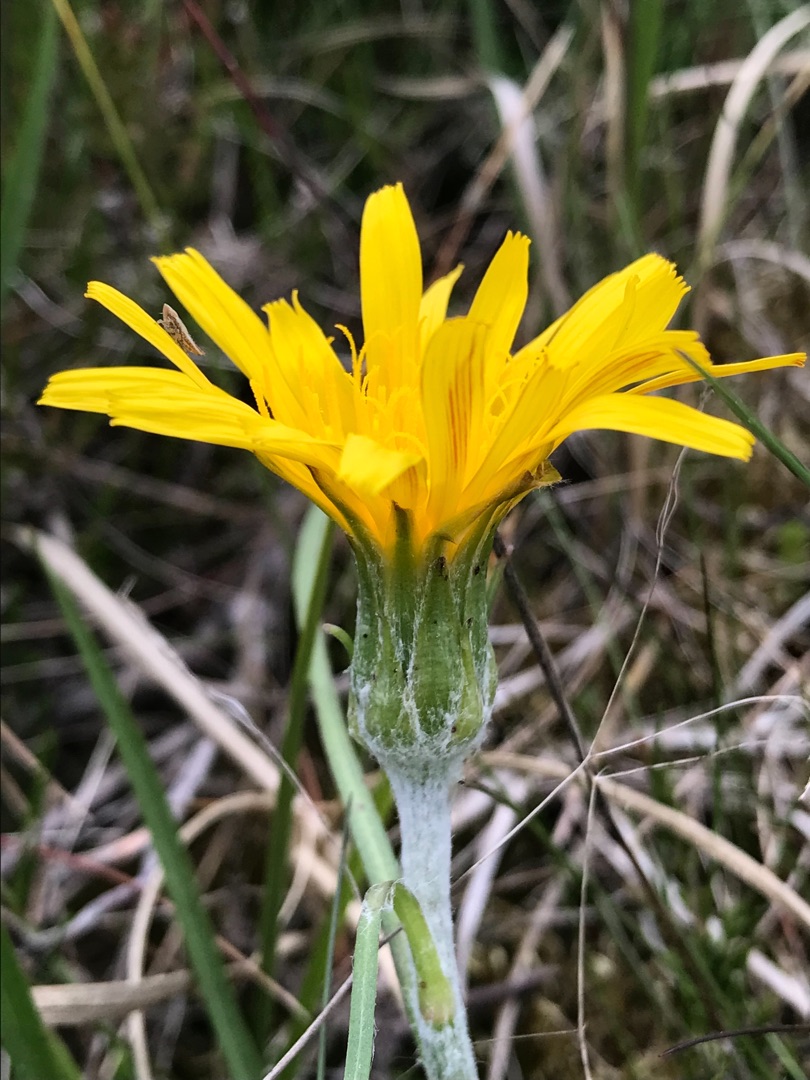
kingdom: Plantae
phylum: Tracheophyta
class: Magnoliopsida
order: Asterales
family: Asteraceae
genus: Scorzonera
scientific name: Scorzonera humilis
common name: Lav skorsoner
